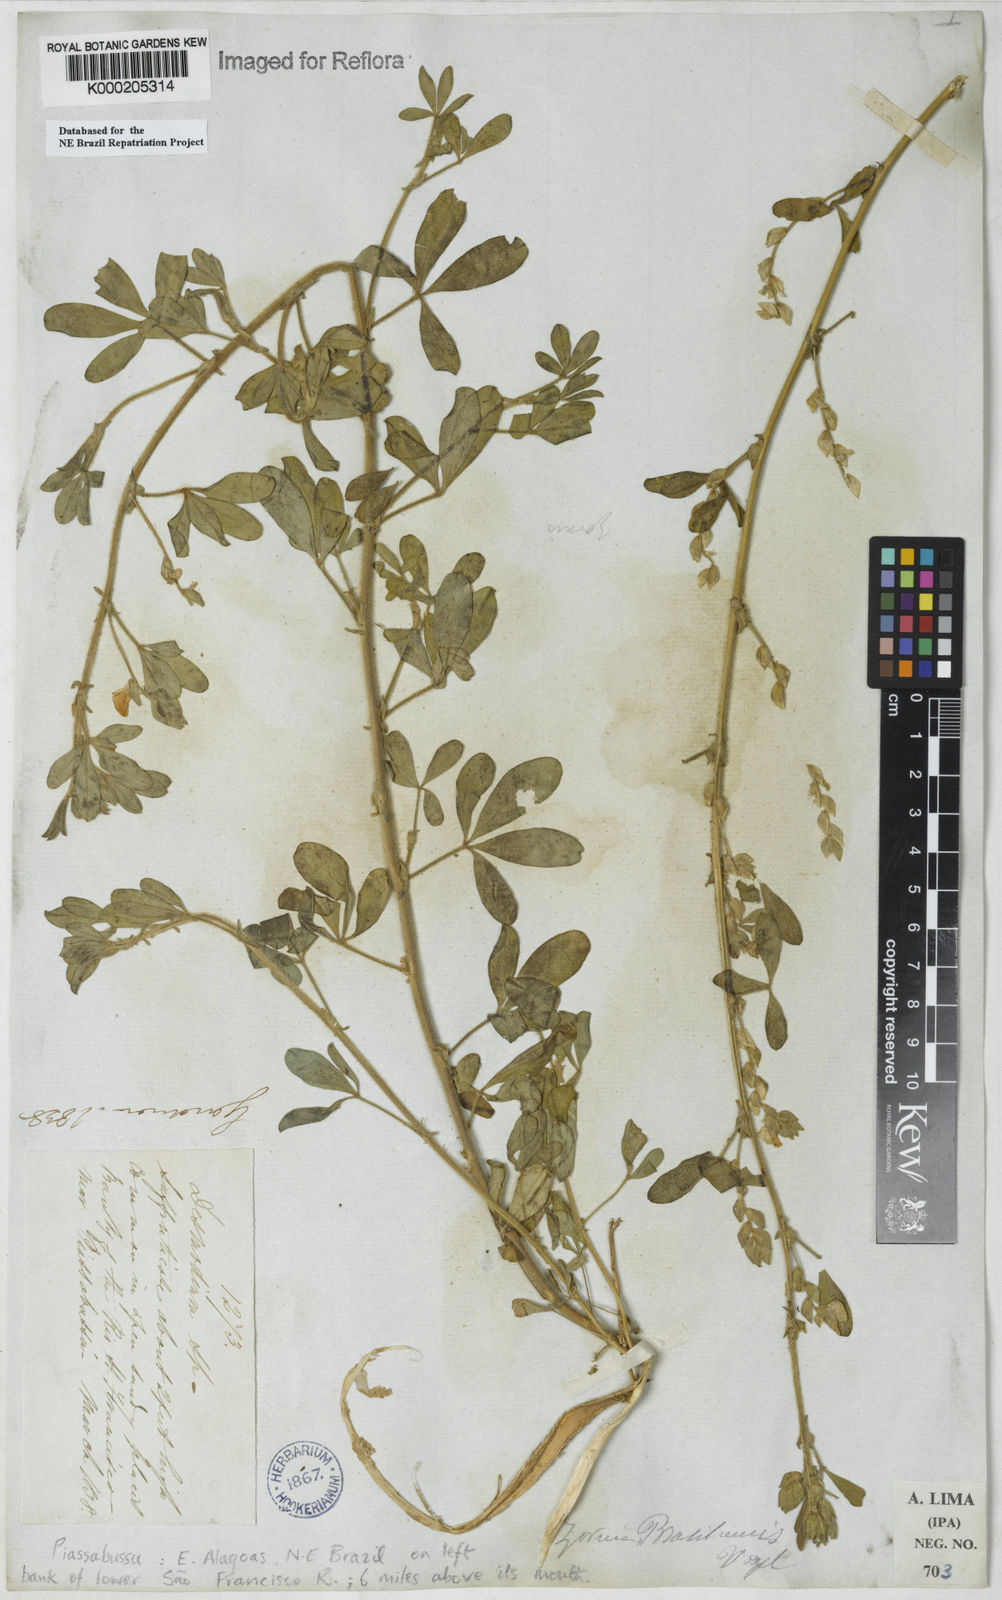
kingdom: Plantae
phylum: Tracheophyta
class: Magnoliopsida
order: Fabales
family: Fabaceae
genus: Zornia
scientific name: Zornia brasiliensis
